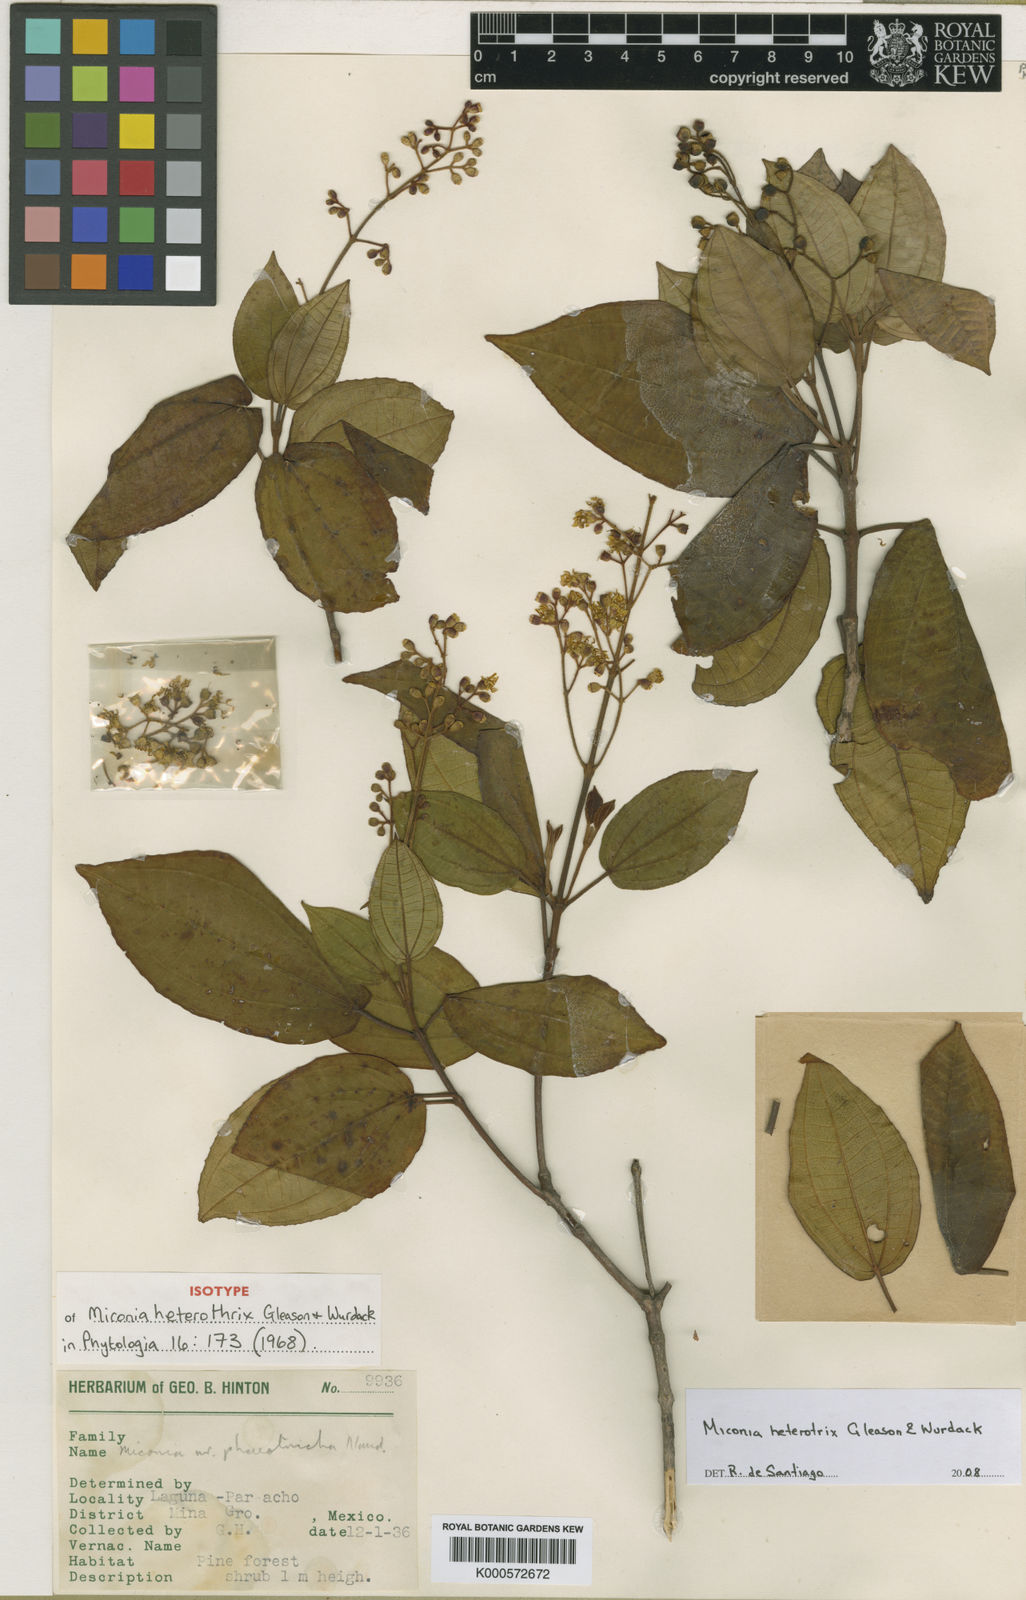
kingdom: Plantae
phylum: Tracheophyta
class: Magnoliopsida
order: Myrtales
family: Melastomataceae
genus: Miconia
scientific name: Miconia heterothrix
